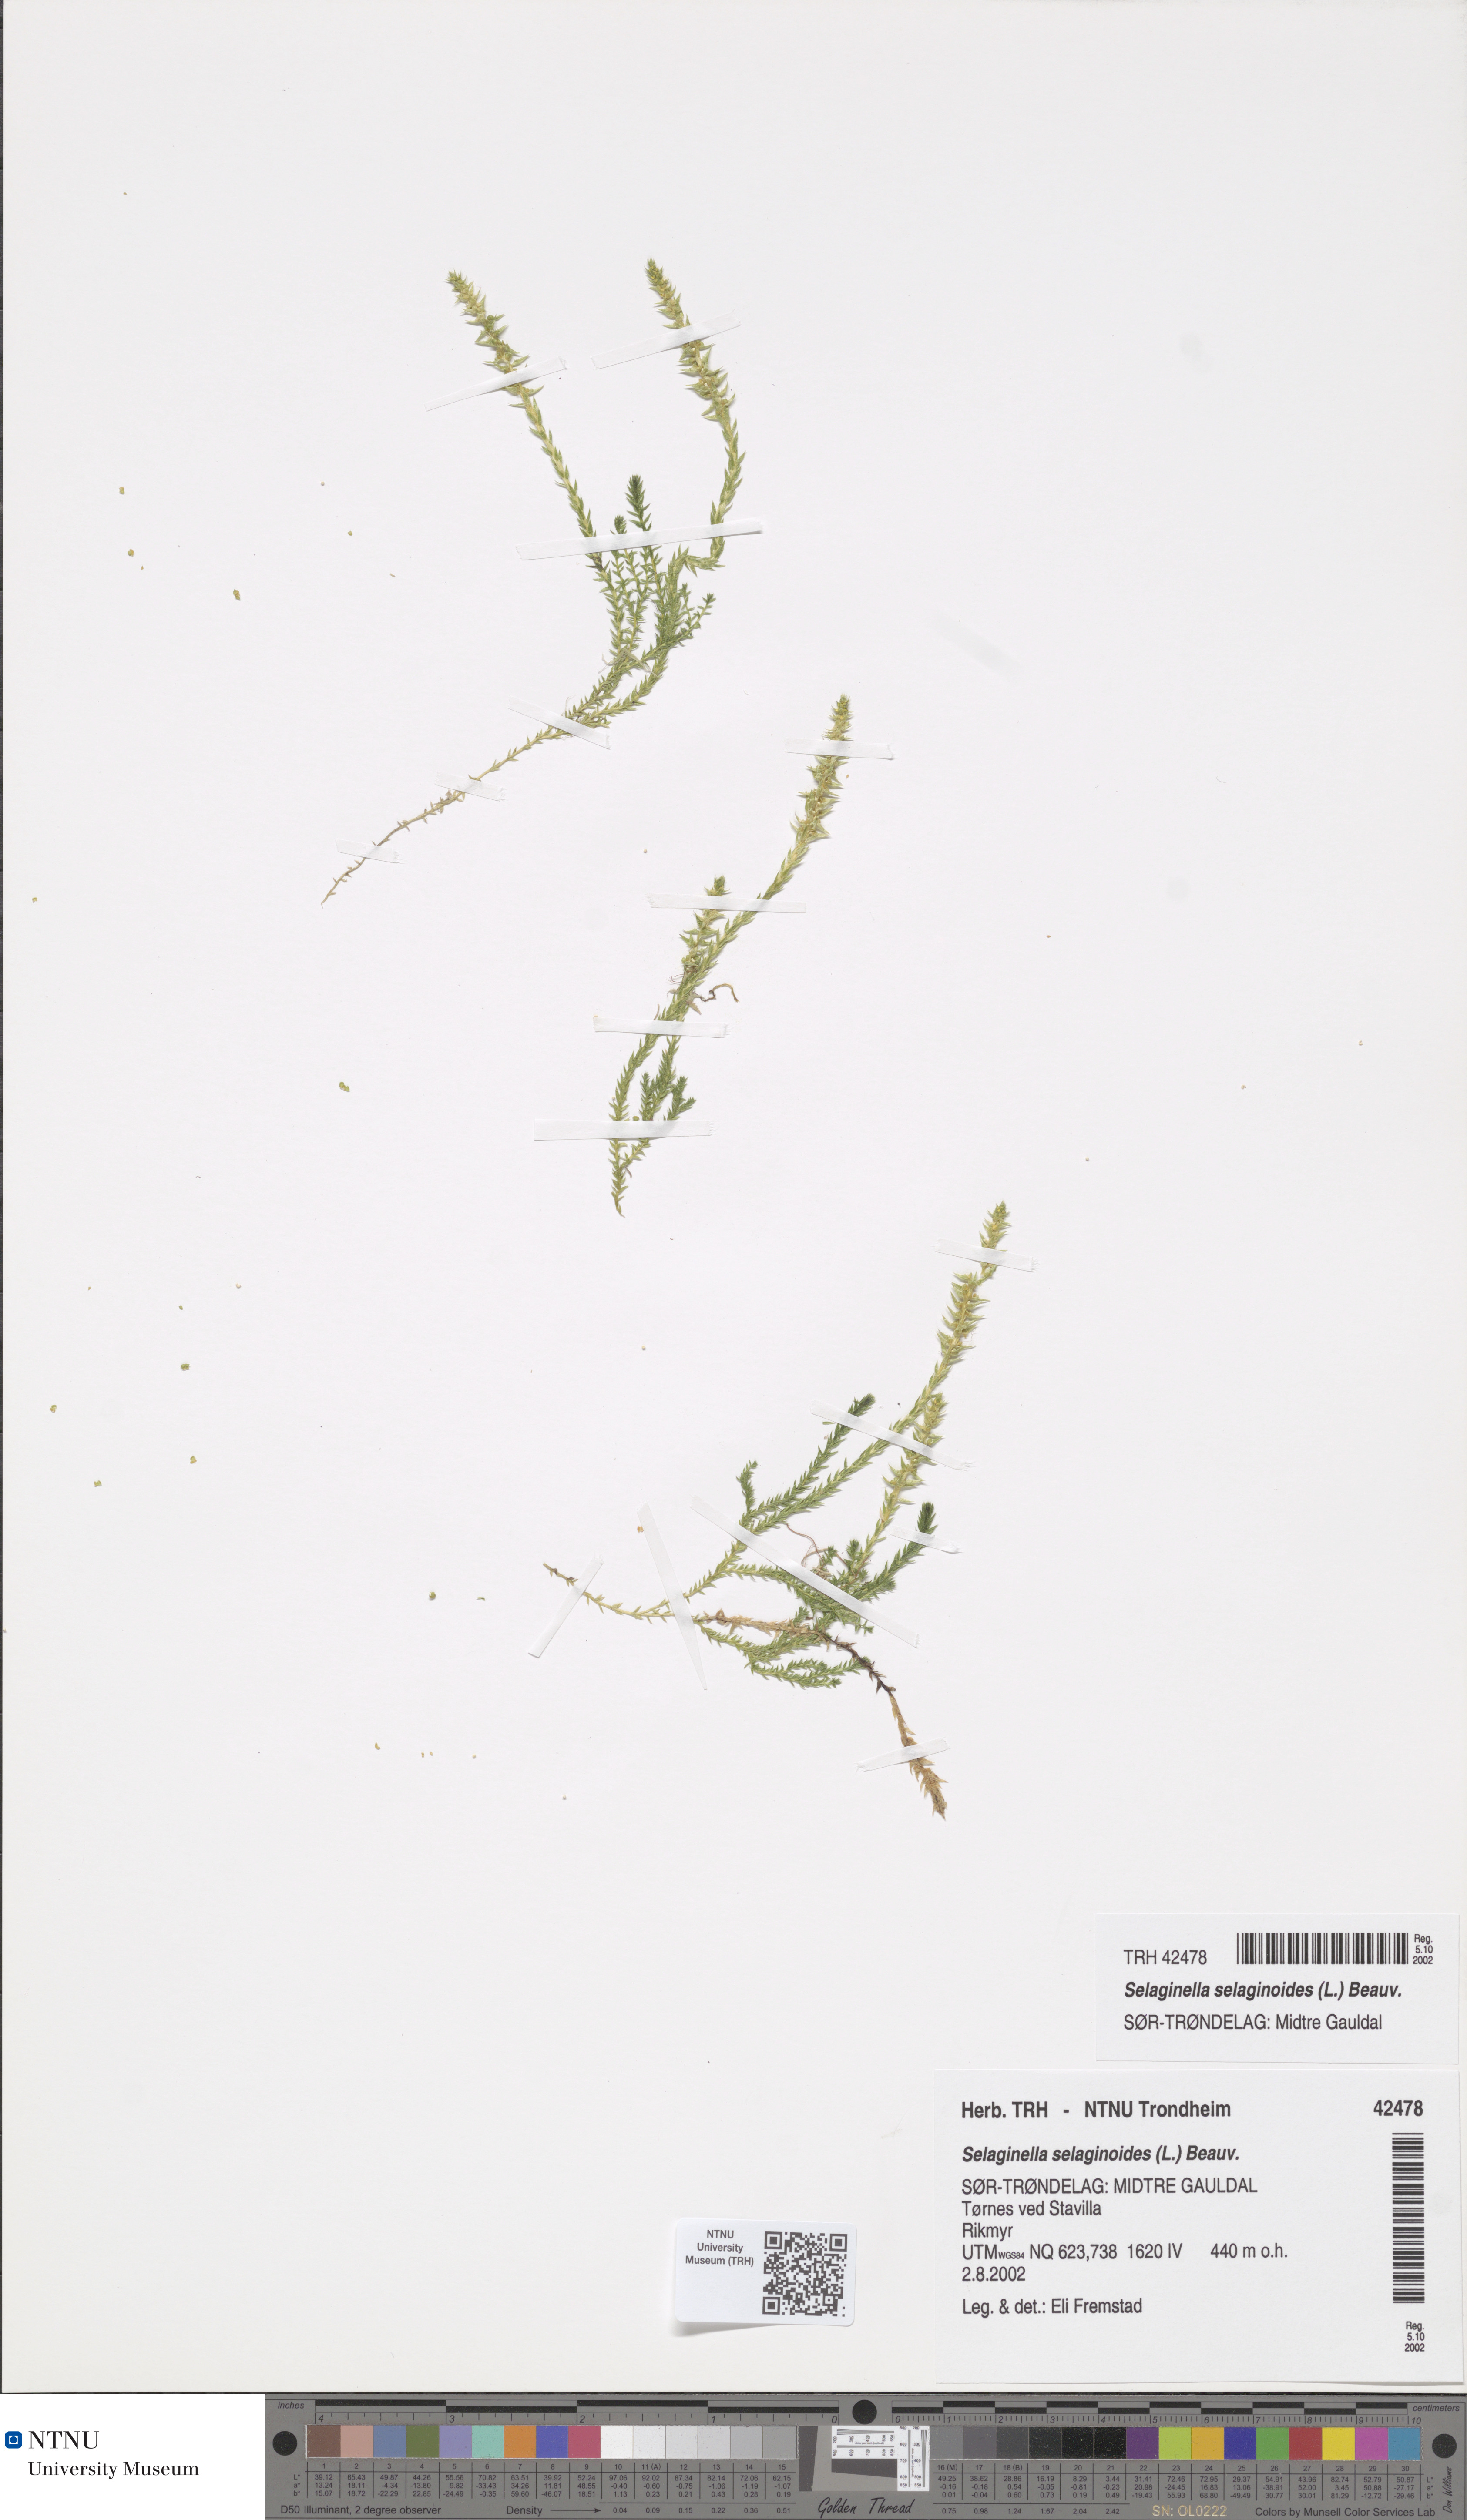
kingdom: Plantae
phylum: Tracheophyta
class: Lycopodiopsida
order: Selaginellales
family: Selaginellaceae
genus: Selaginella
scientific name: Selaginella selaginoides
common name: Prickly mountain-moss
